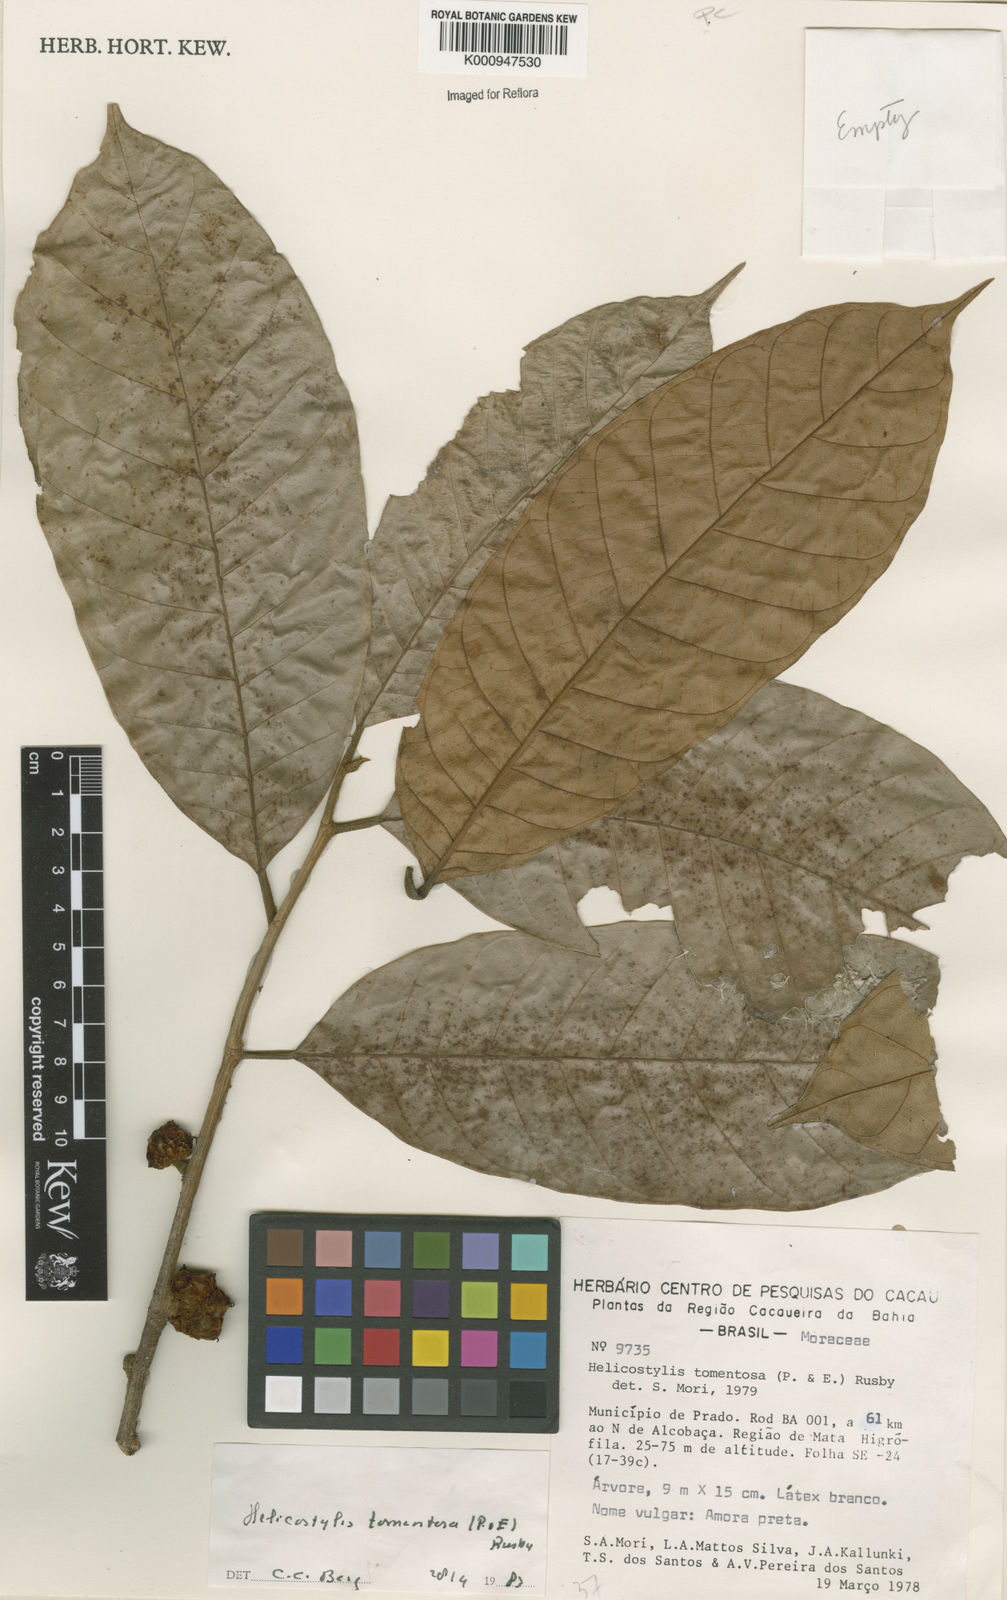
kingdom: Plantae
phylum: Tracheophyta
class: Magnoliopsida
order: Rosales
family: Moraceae
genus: Helicostylis
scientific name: Helicostylis
